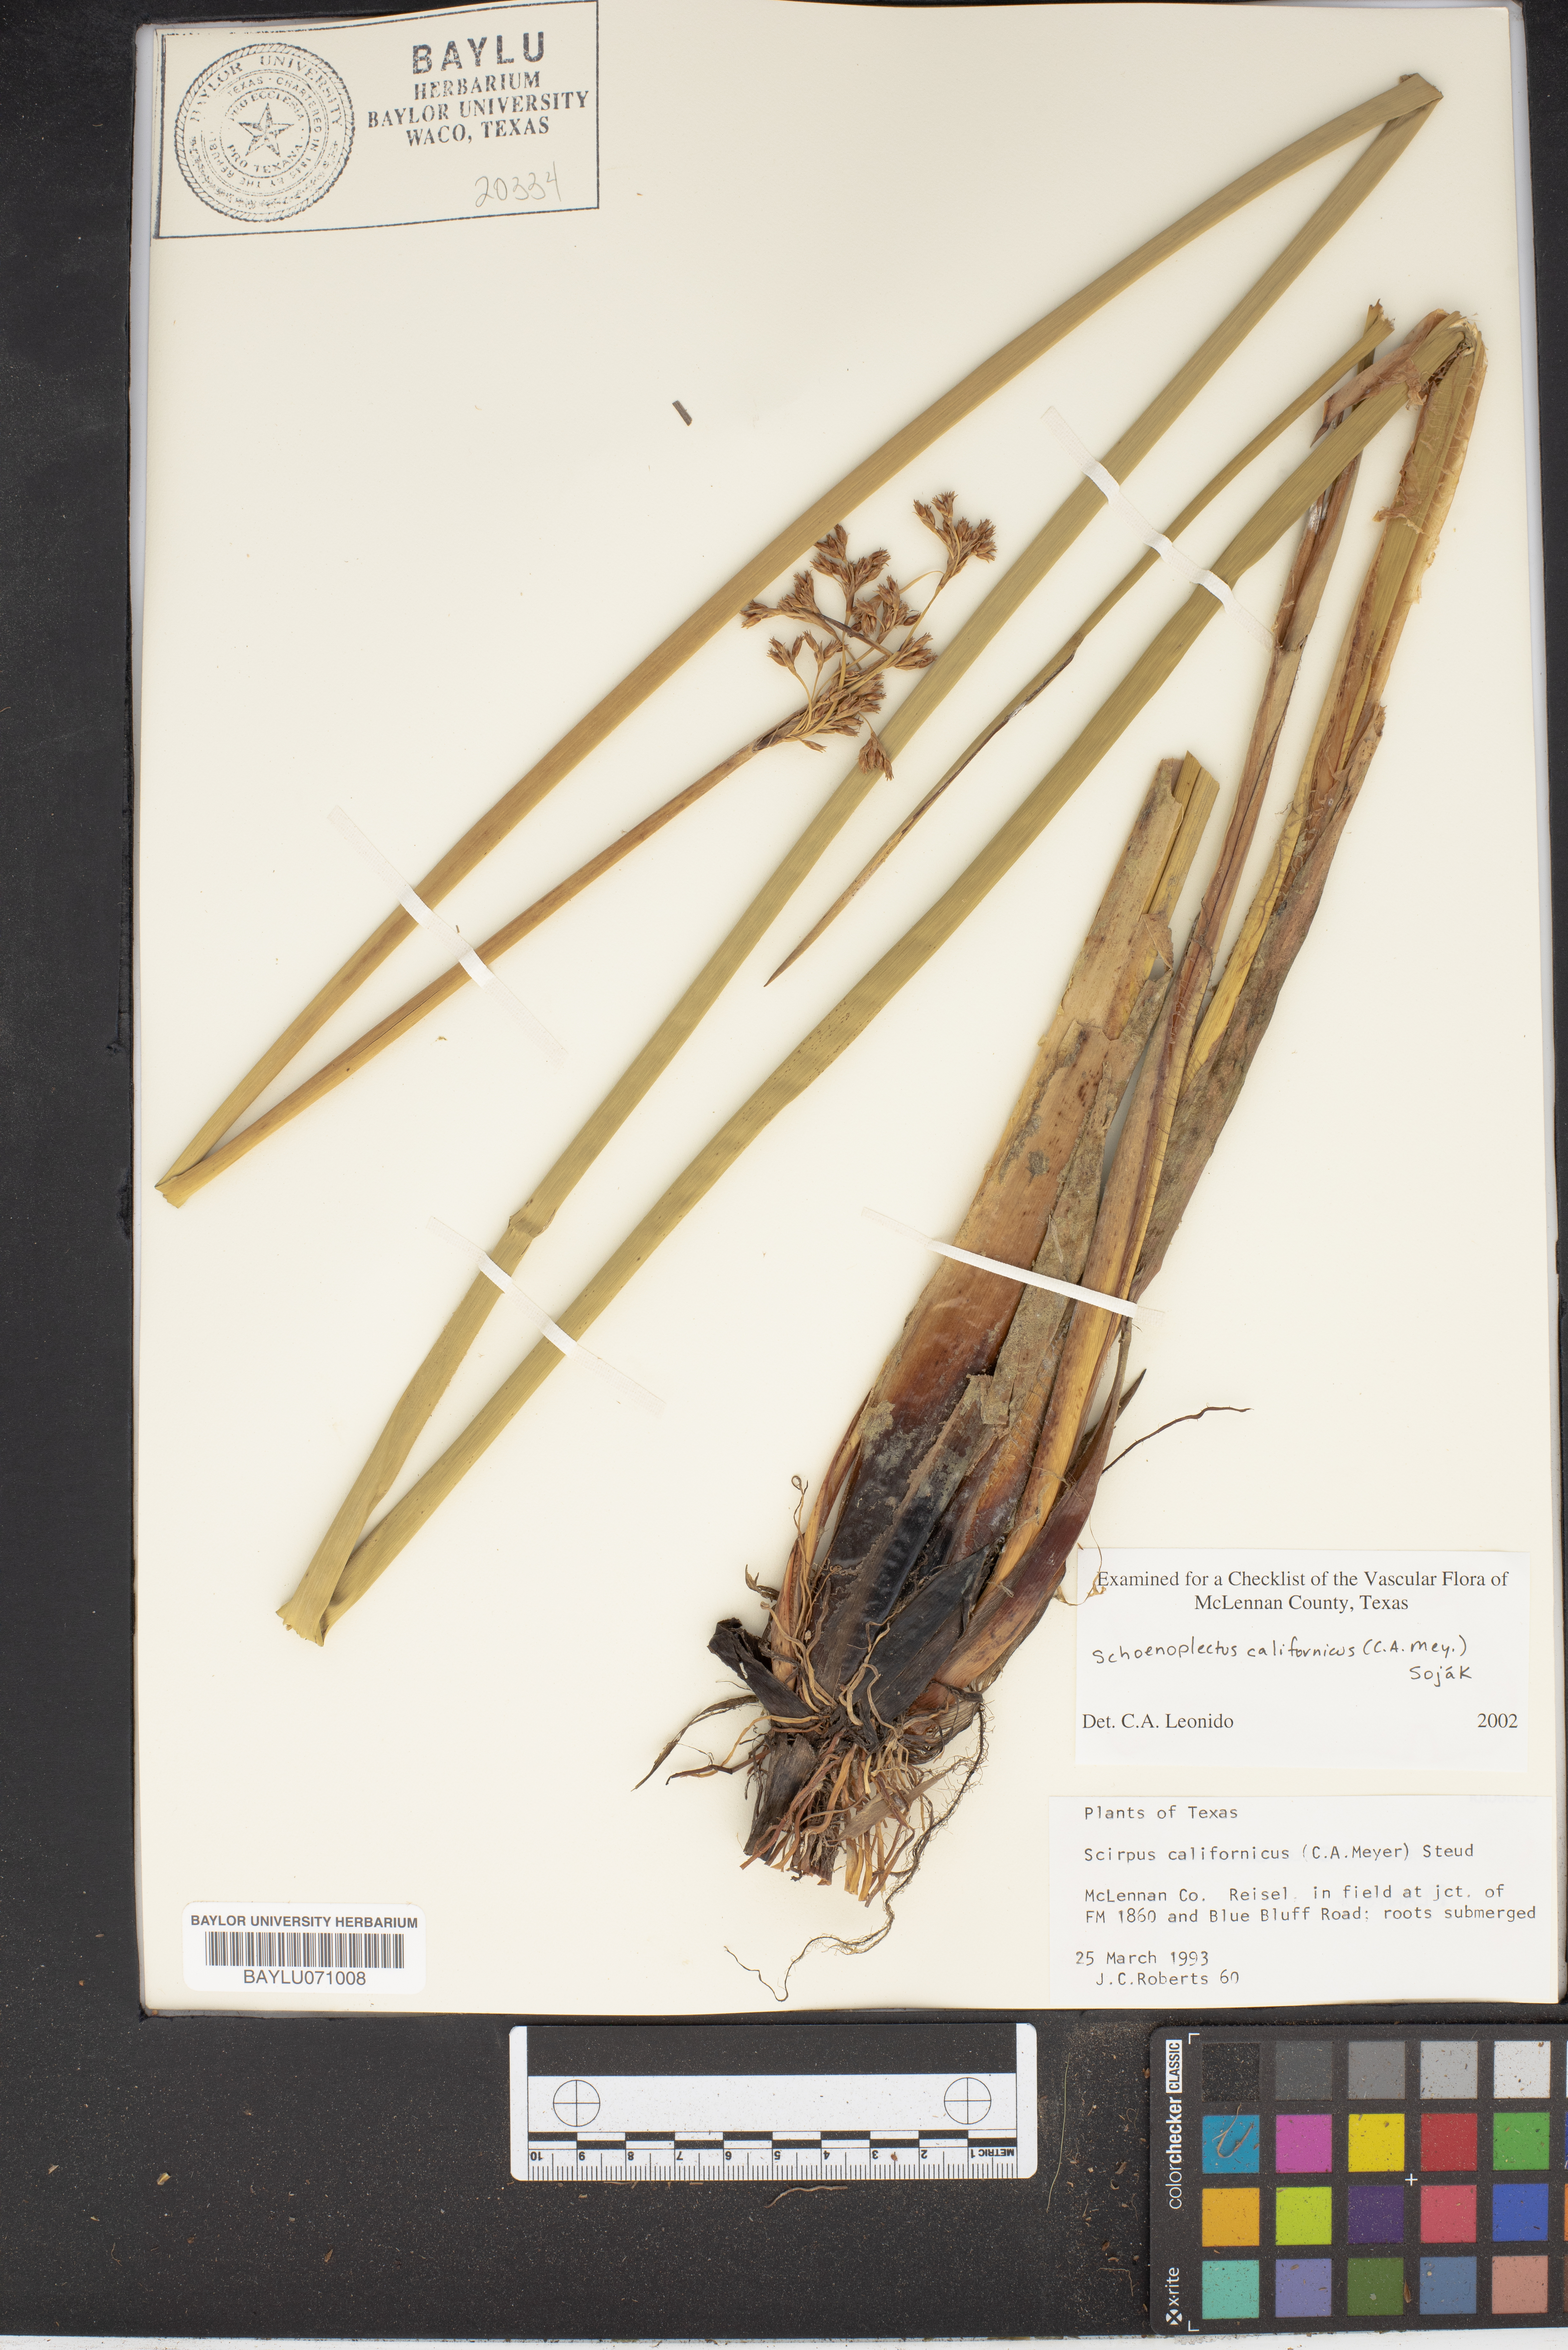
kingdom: Plantae
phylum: Tracheophyta
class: Liliopsida
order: Poales
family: Cyperaceae
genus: Schoenoplectus
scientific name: Schoenoplectus californicus
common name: California bulrush
